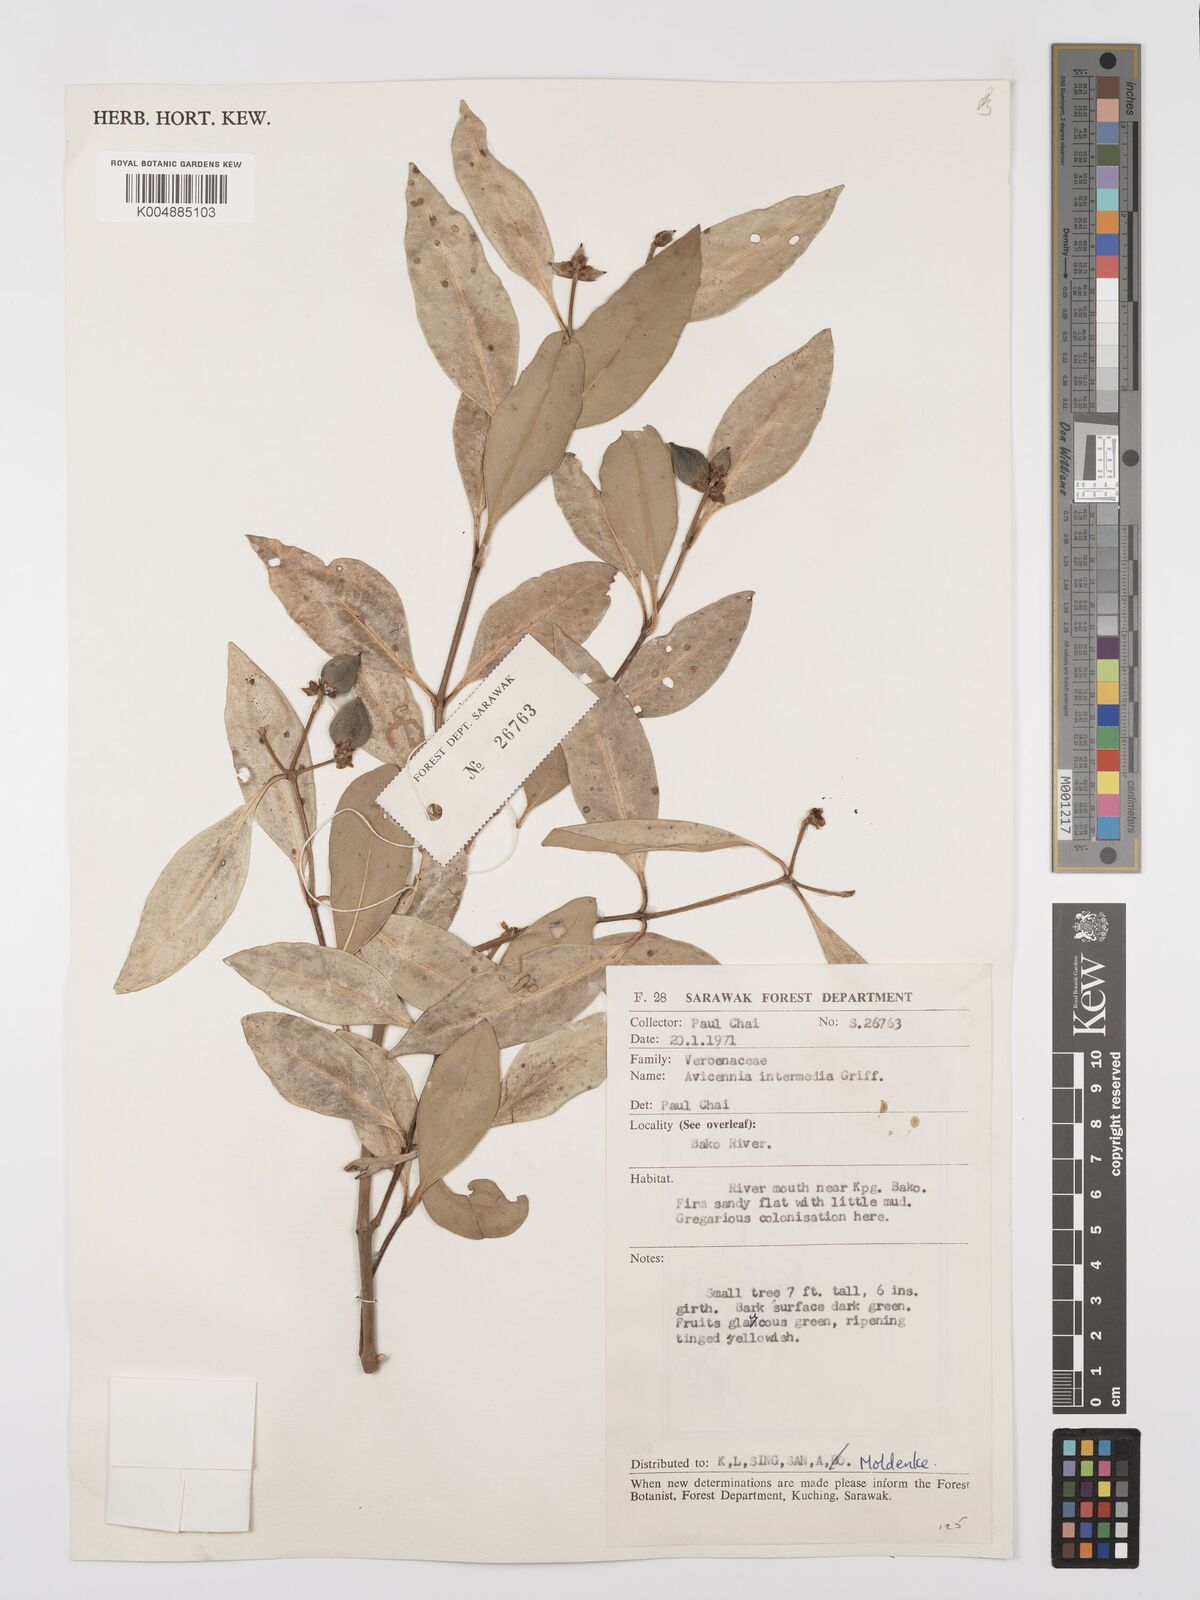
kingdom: Plantae
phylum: Tracheophyta
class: Magnoliopsida
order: Lamiales
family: Acanthaceae
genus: Avicennia
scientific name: Avicennia marina
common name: Gray mangrove
